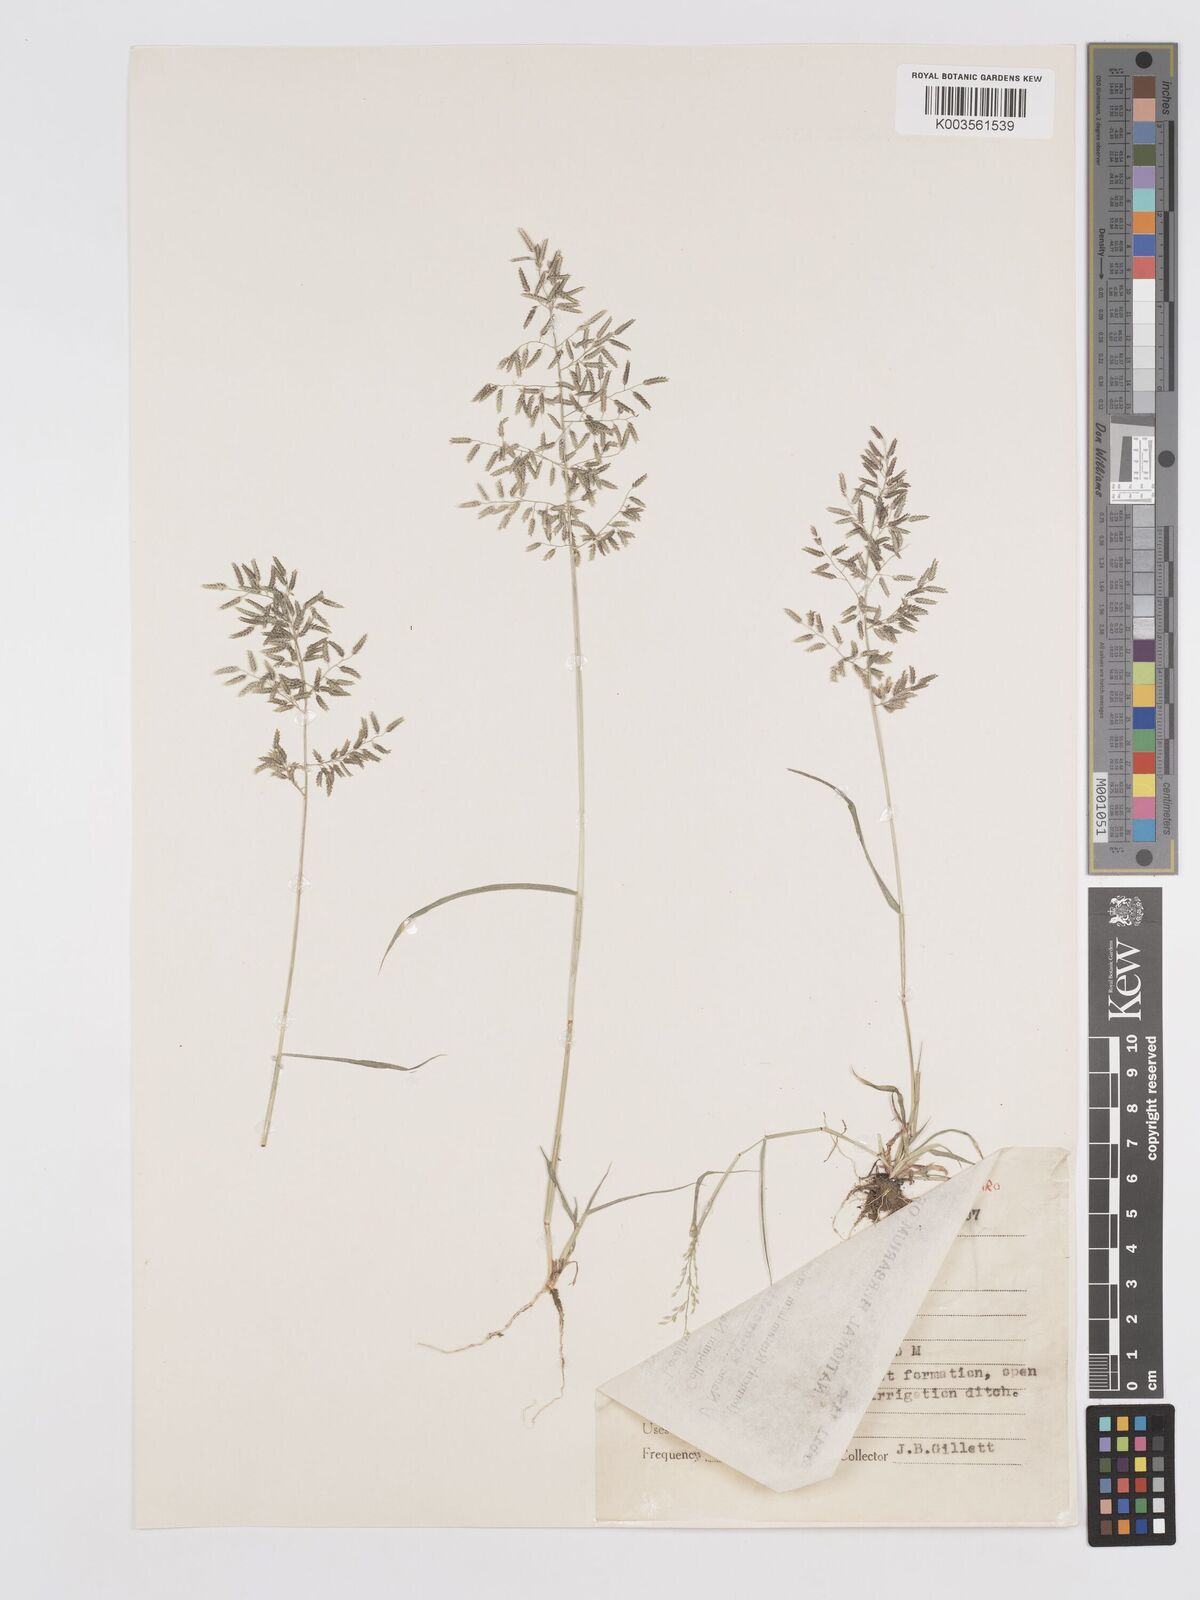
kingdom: Plantae
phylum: Tracheophyta
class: Liliopsida
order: Poales
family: Poaceae
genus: Eragrostis
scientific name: Eragrostis minor
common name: Small love-grass
